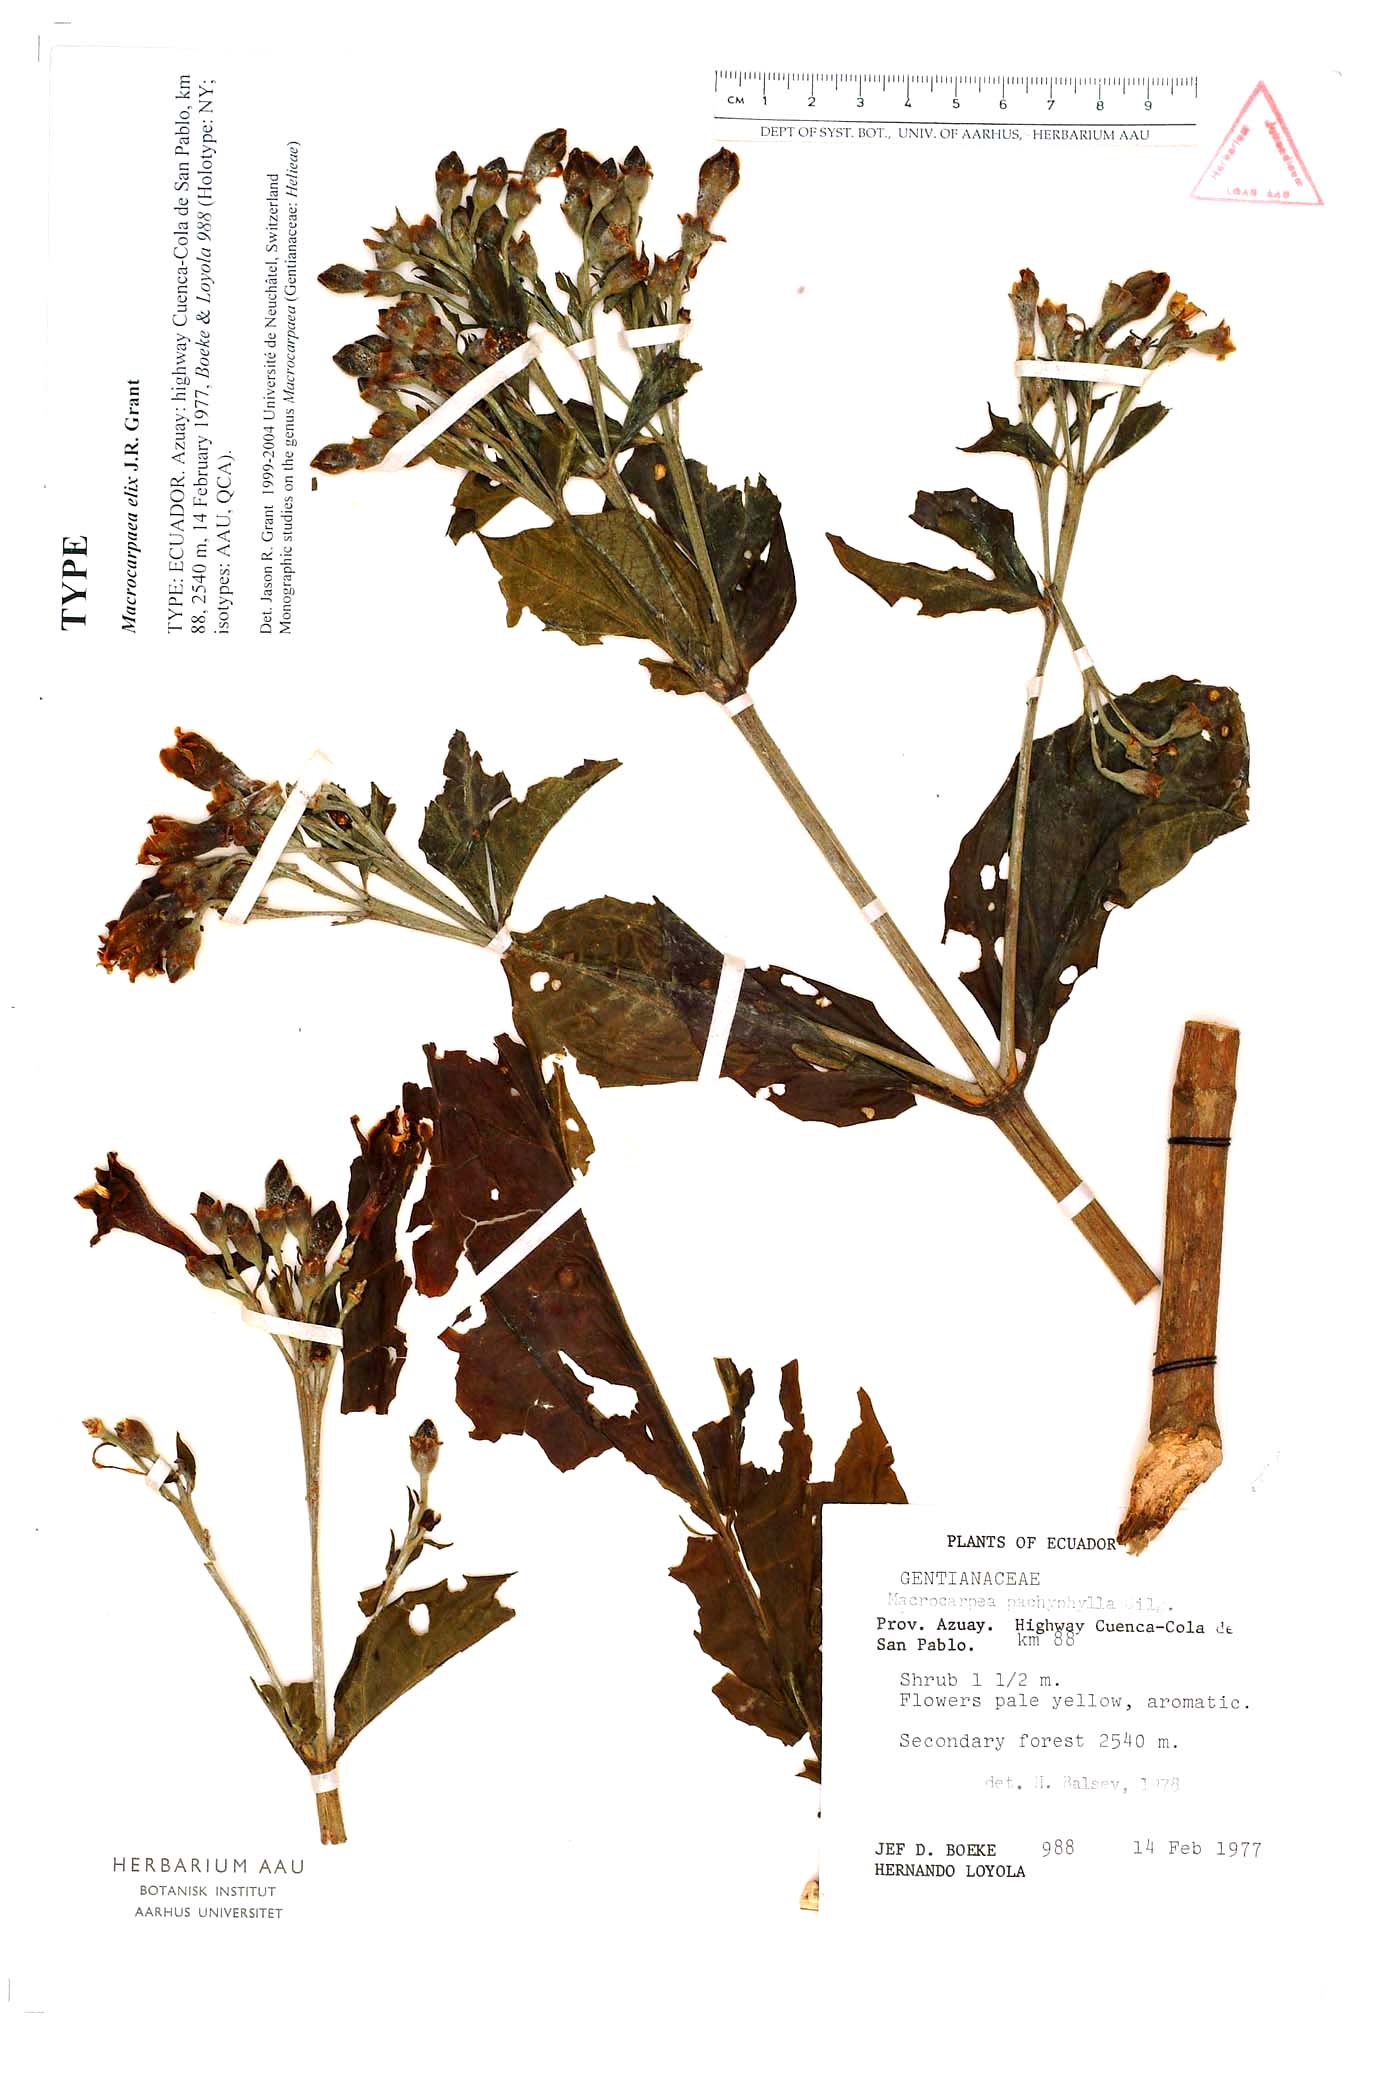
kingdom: Plantae
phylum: Tracheophyta
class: Magnoliopsida
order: Gentianales
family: Gentianaceae
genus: Macrocarpaea
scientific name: Macrocarpaea elix
